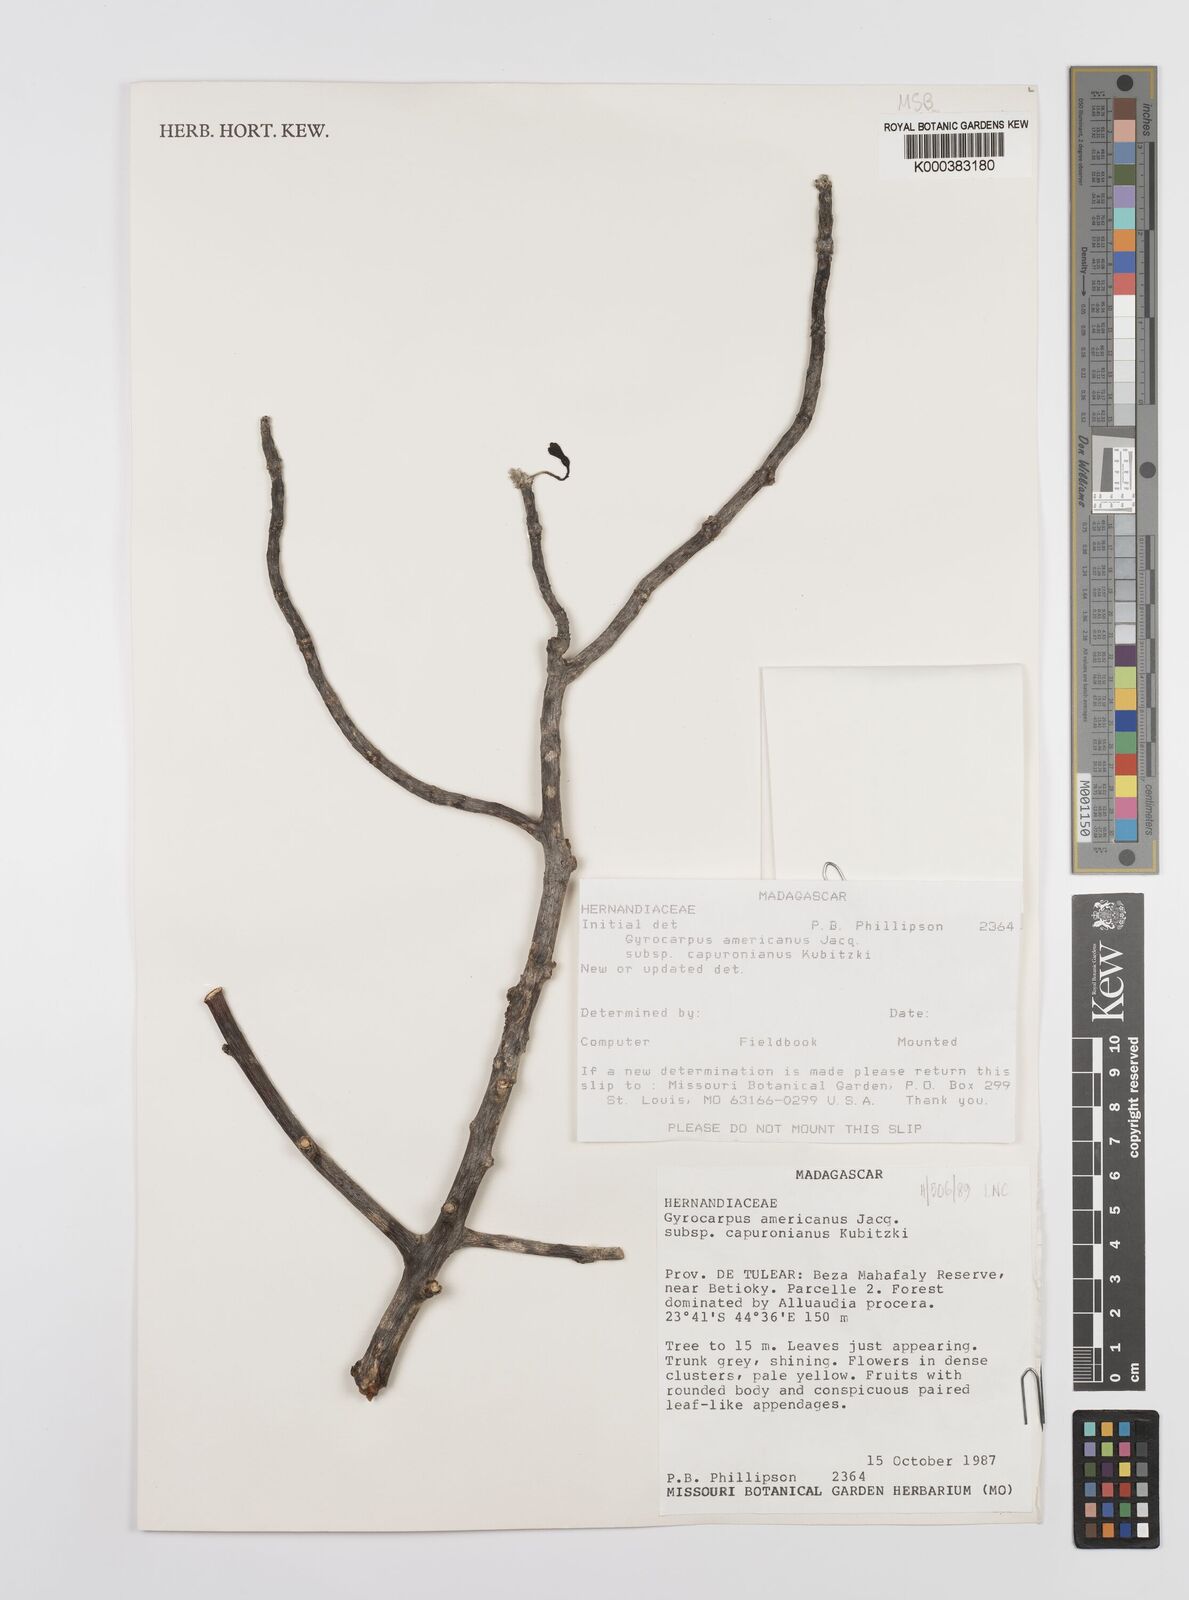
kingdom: Plantae
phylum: Tracheophyta
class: Magnoliopsida
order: Laurales
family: Hernandiaceae
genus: Gyrocarpus
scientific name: Gyrocarpus americanus
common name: Gyro damson
